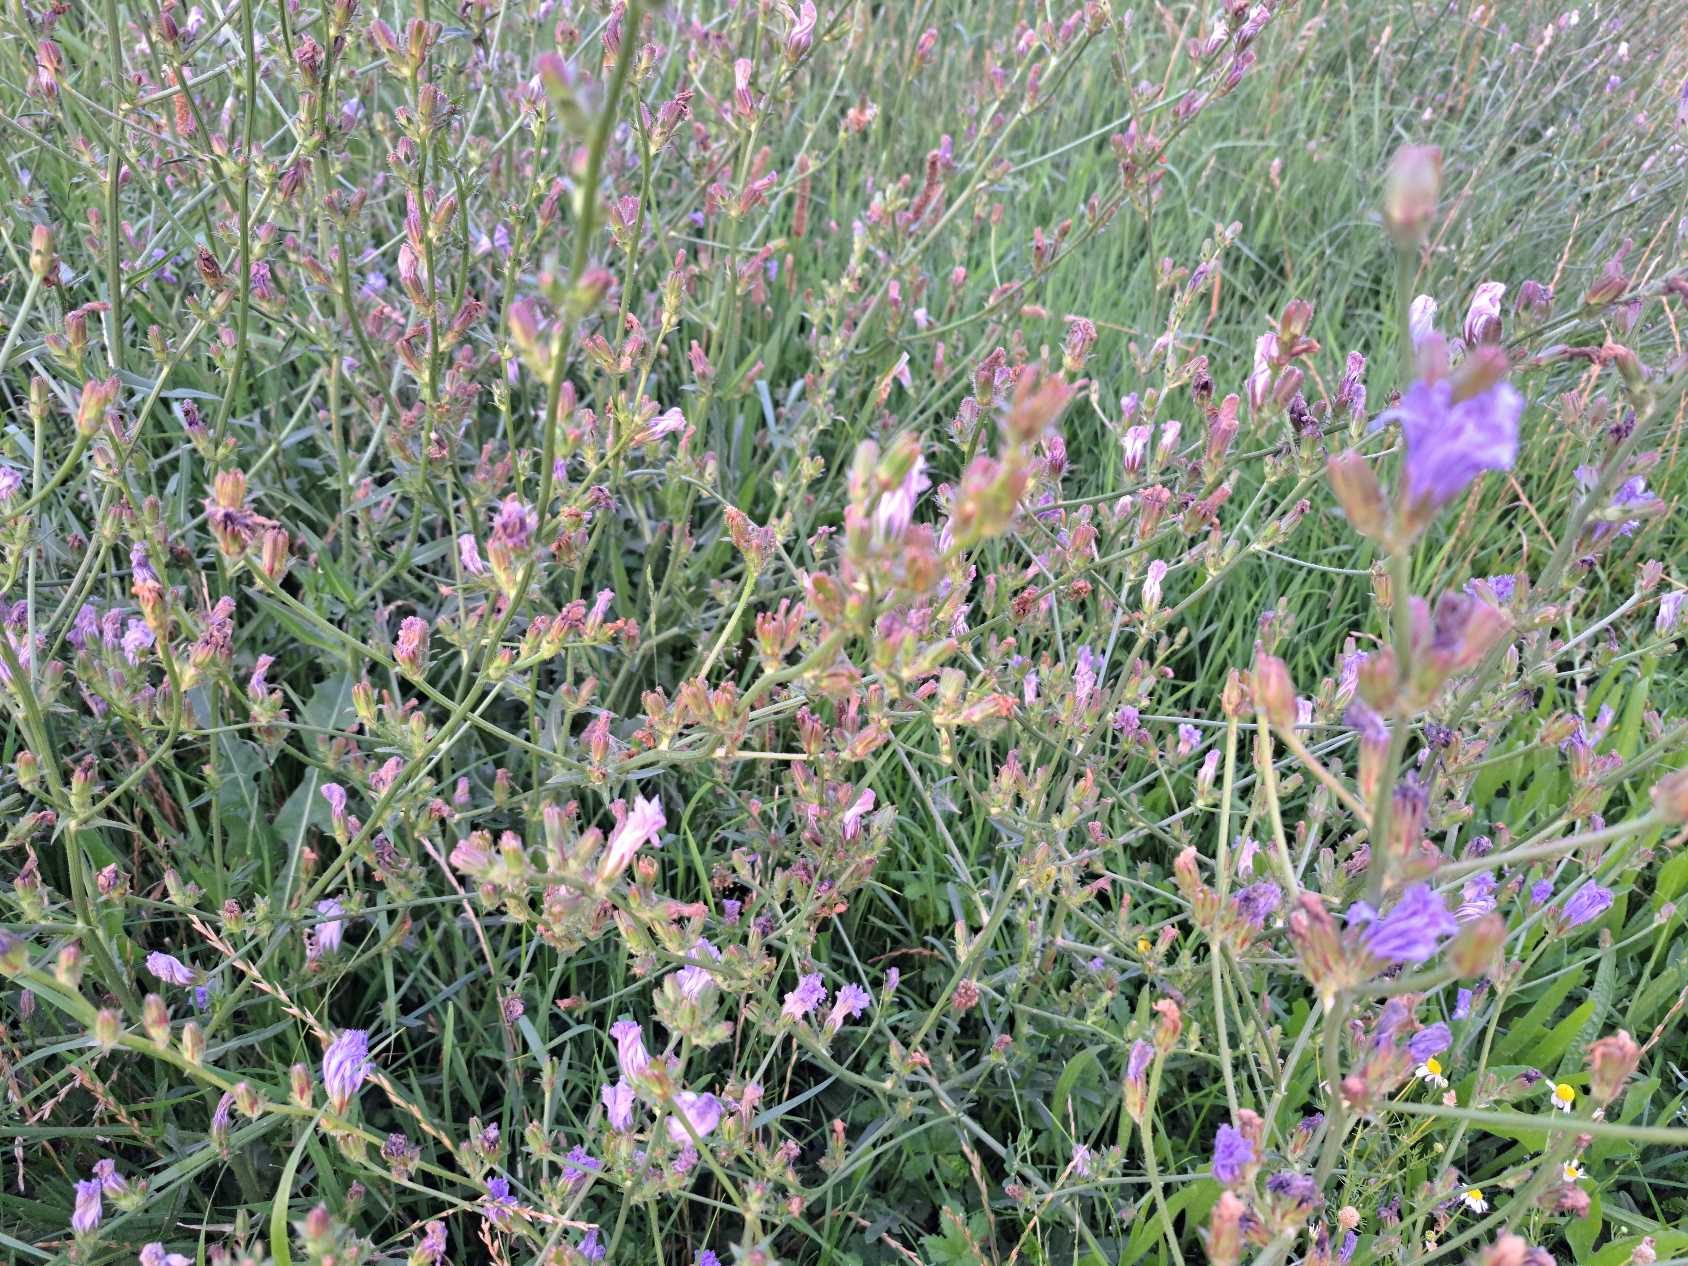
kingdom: Plantae
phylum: Tracheophyta
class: Magnoliopsida
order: Asterales
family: Asteraceae
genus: Cichorium
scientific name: Cichorium intybus
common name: Cikorie
